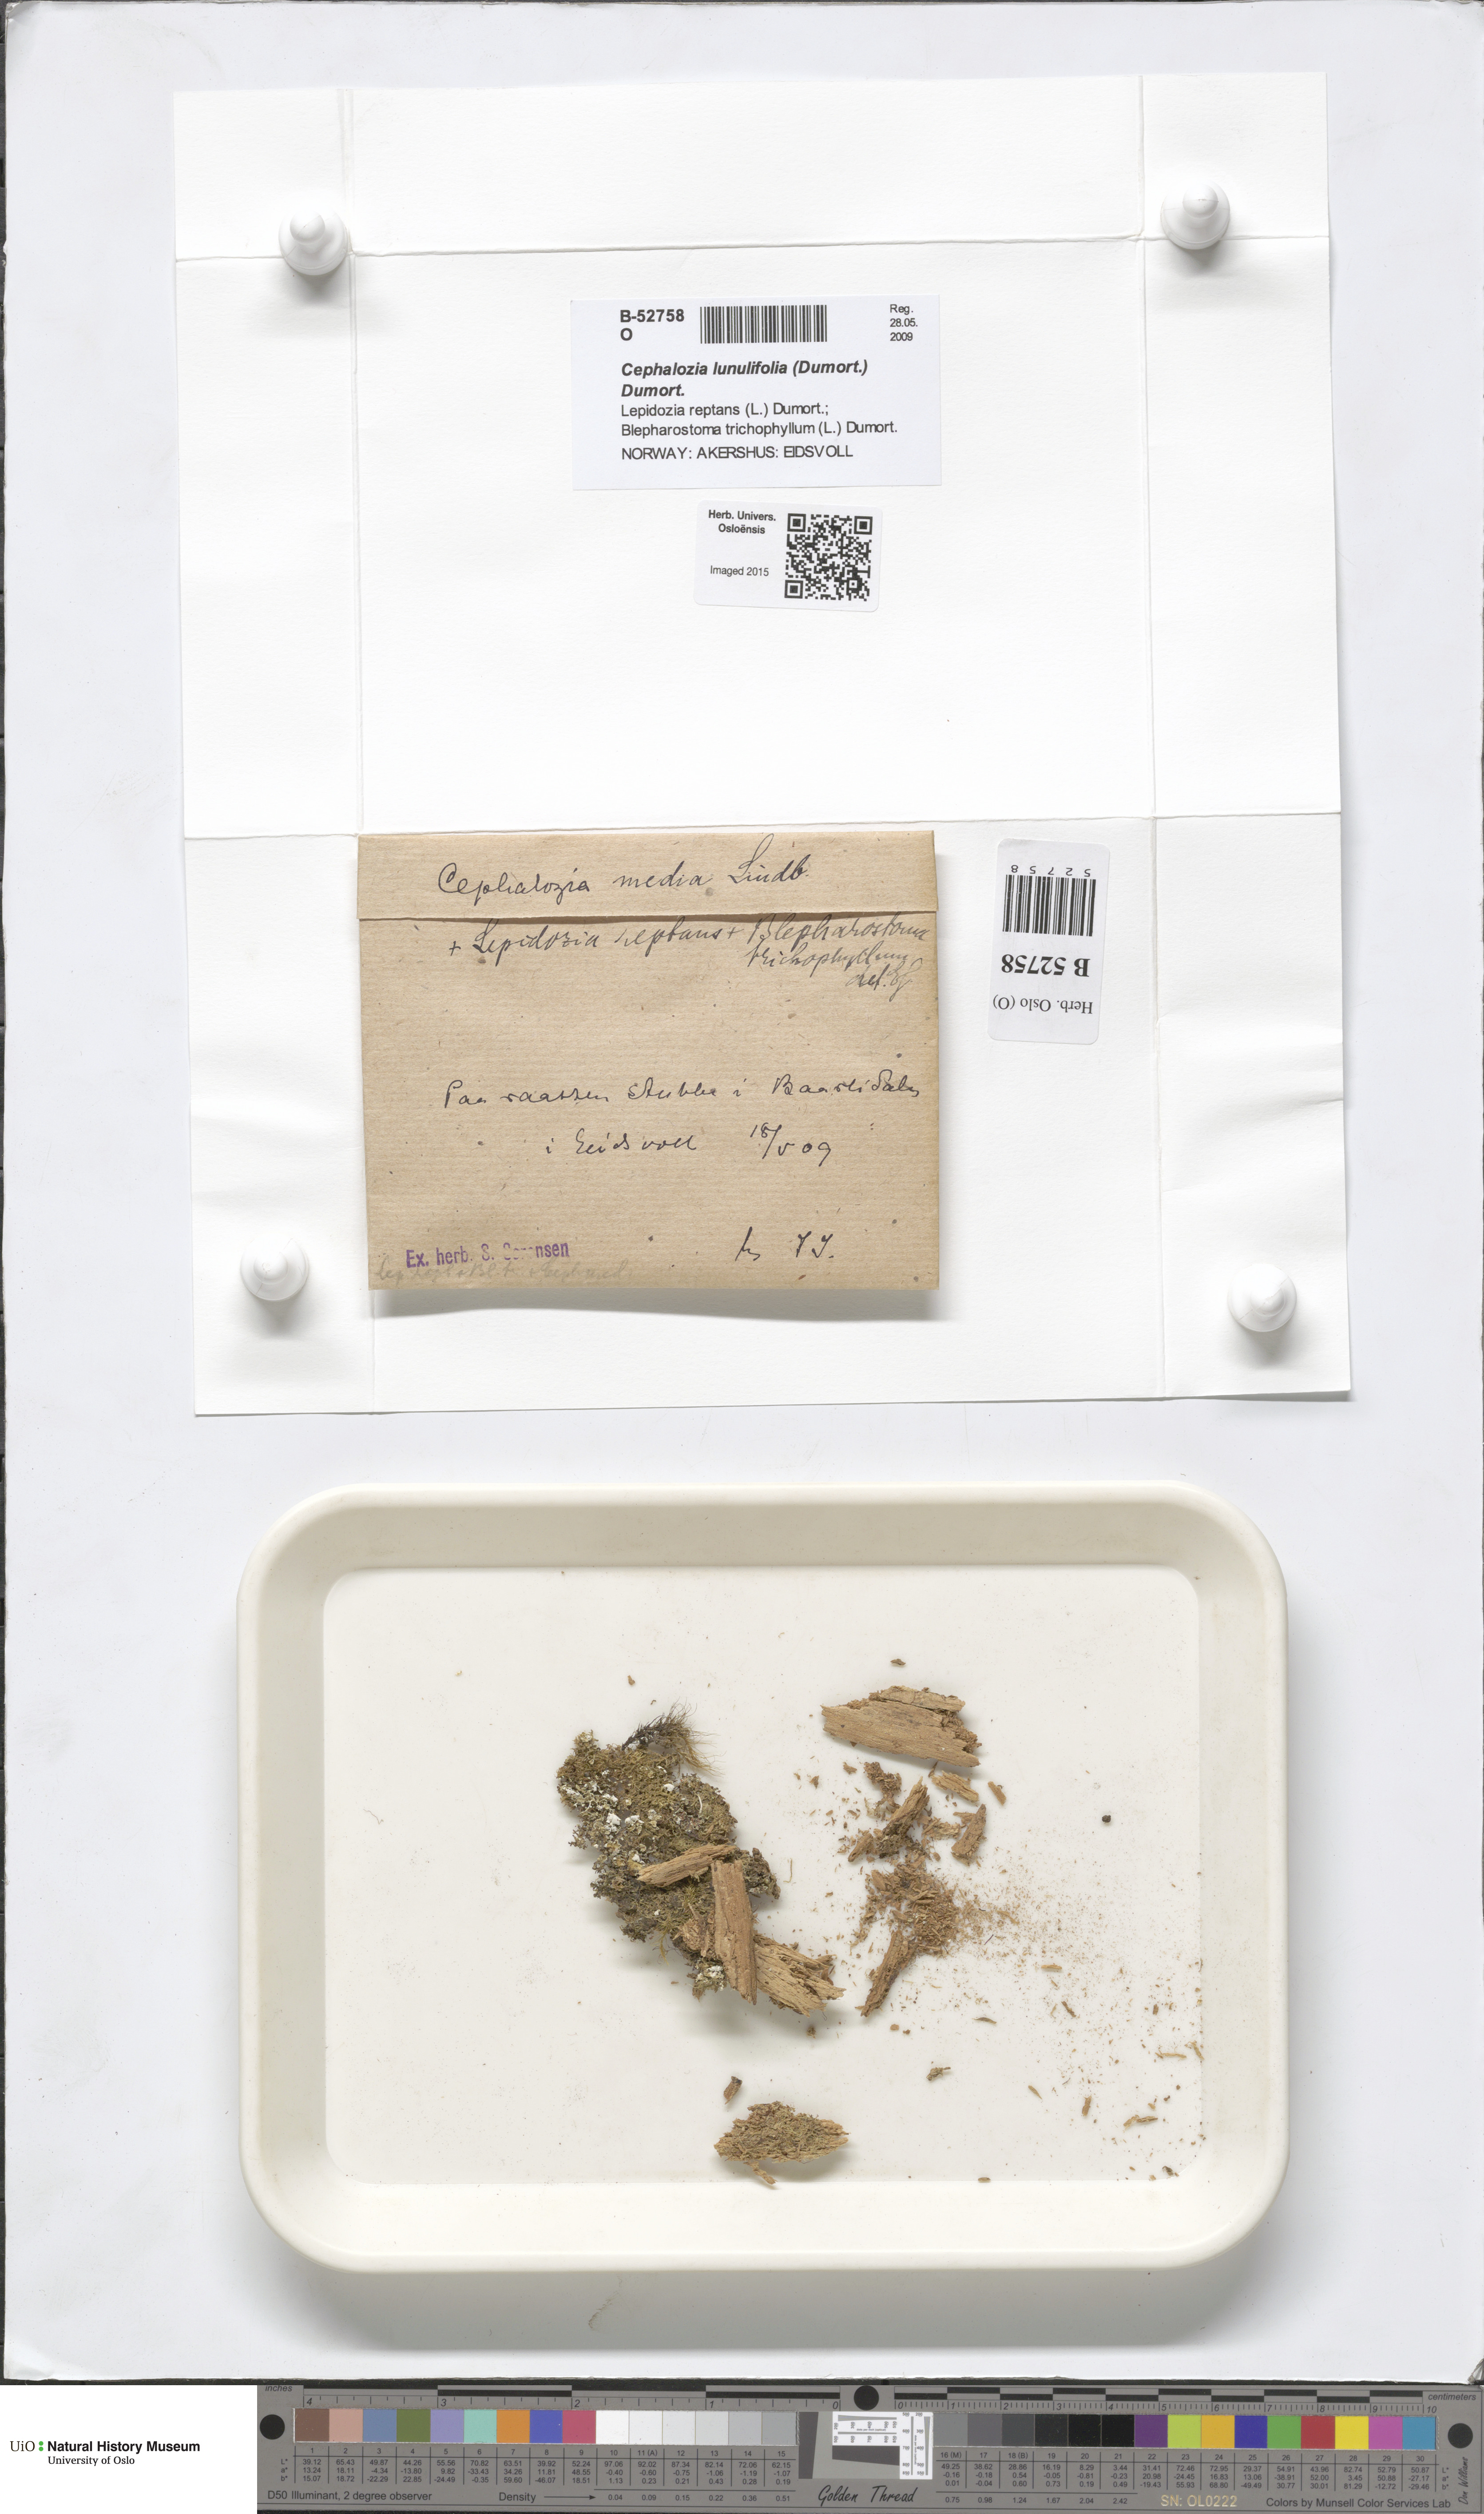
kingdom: Plantae
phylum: Marchantiophyta
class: Jungermanniopsida
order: Jungermanniales
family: Cephaloziaceae
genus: Fuscocephaloziopsis
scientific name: Fuscocephaloziopsis lunulifolia
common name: Moon-leaved pincerwort
